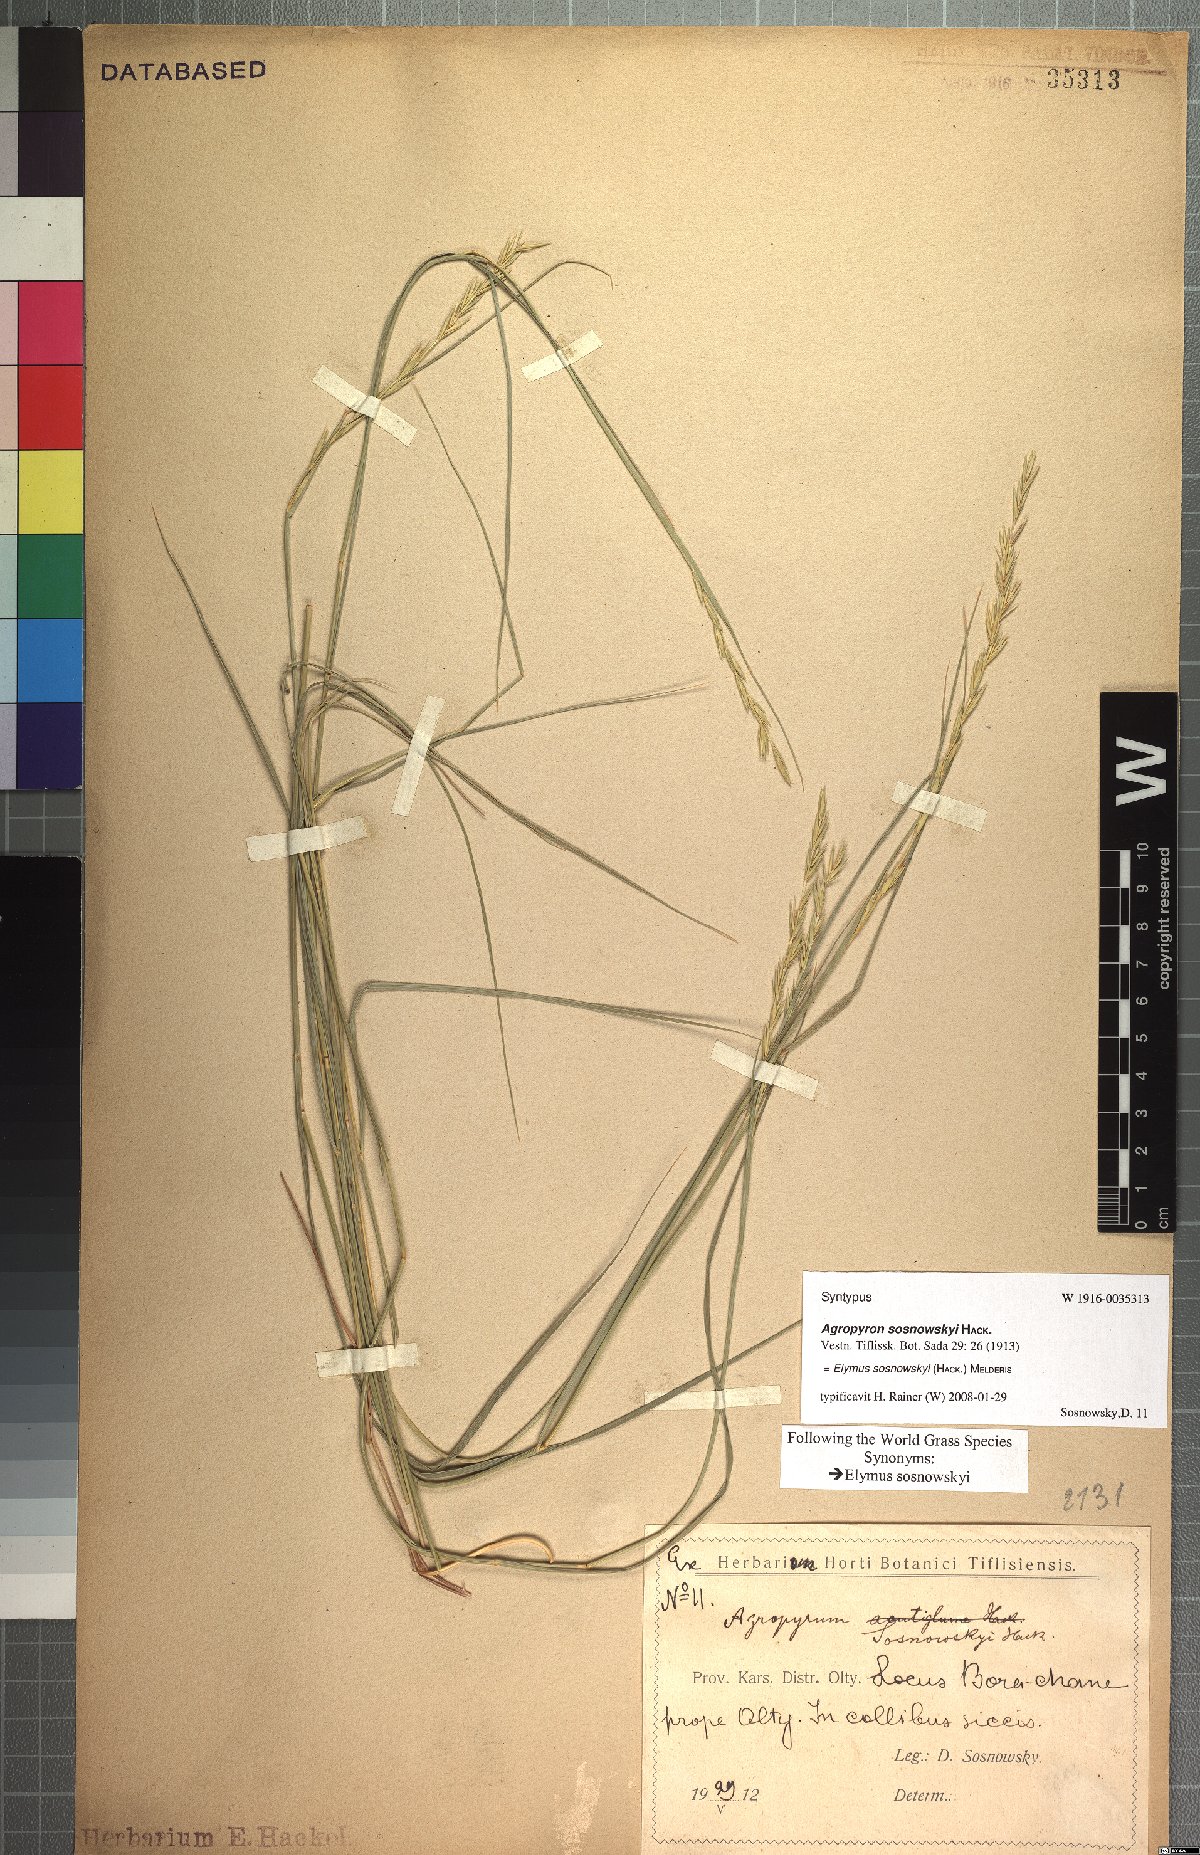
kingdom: Plantae
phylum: Tracheophyta
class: Liliopsida
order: Poales
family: Poaceae
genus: Pseudoroegneria
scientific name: Pseudoroegneria sosnowskyi
